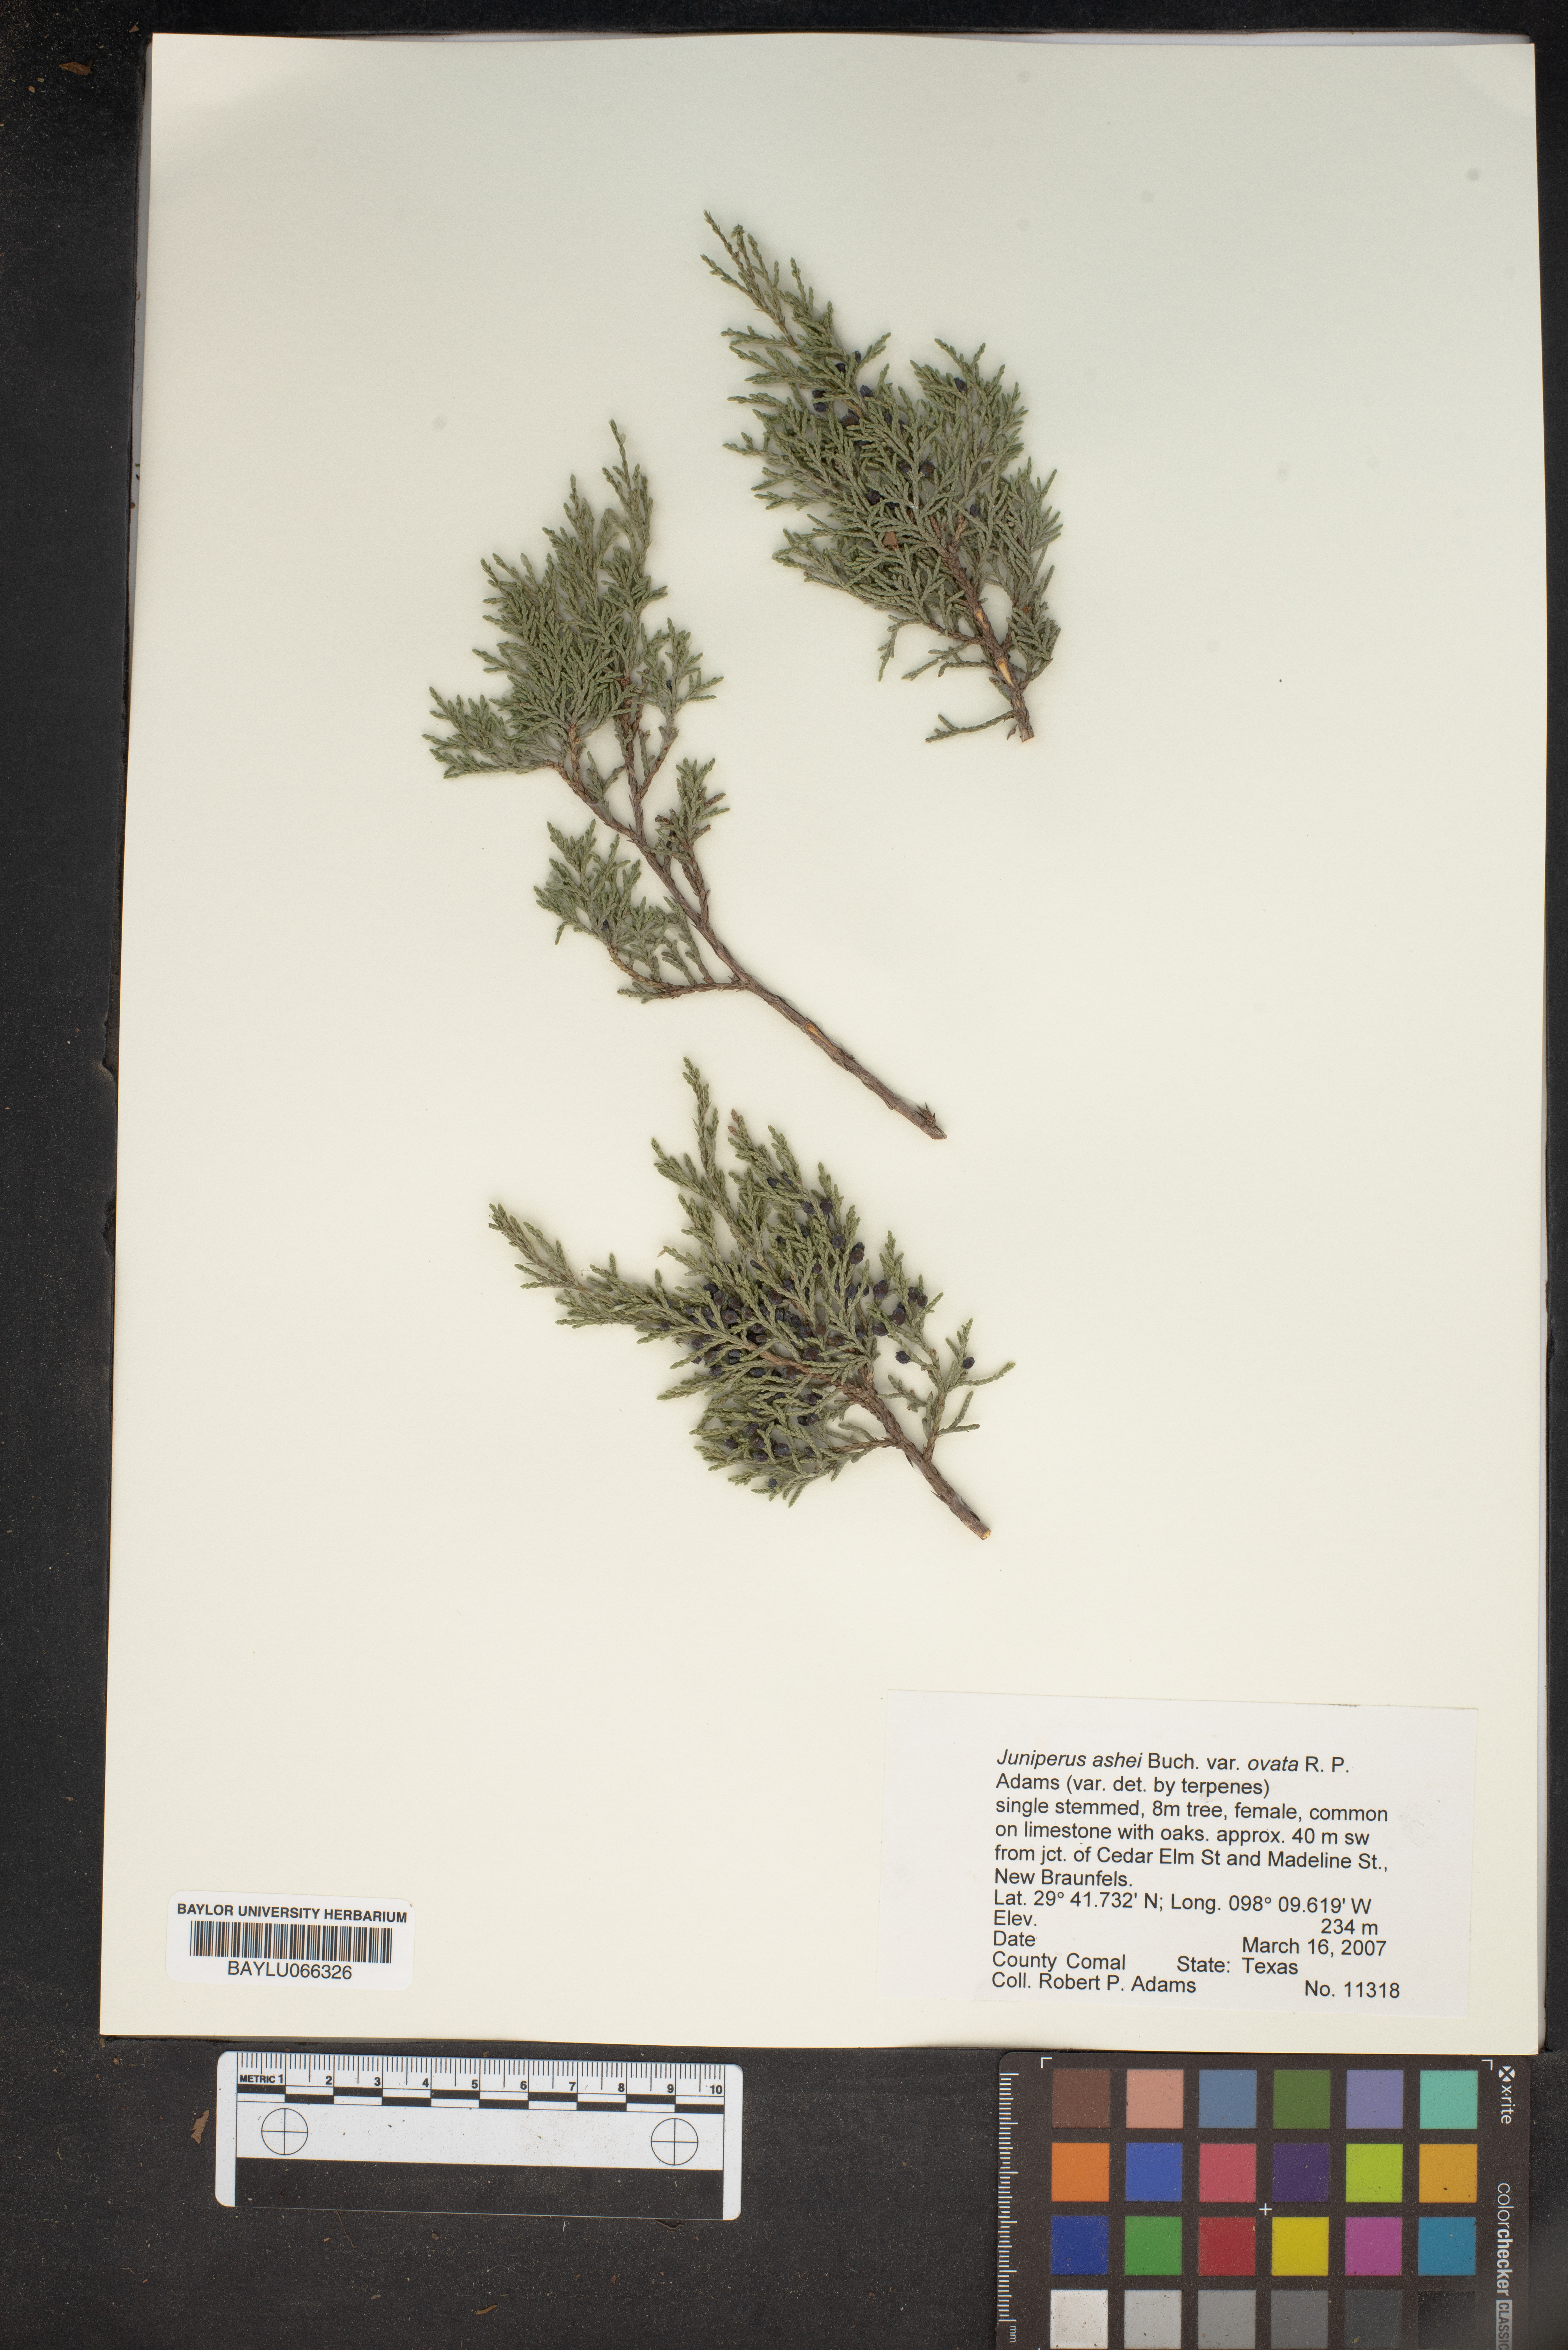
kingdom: Plantae
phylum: Tracheophyta
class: Pinopsida
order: Pinales
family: Cupressaceae
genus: Juniperus
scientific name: Juniperus ashei
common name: Mexican juniper
